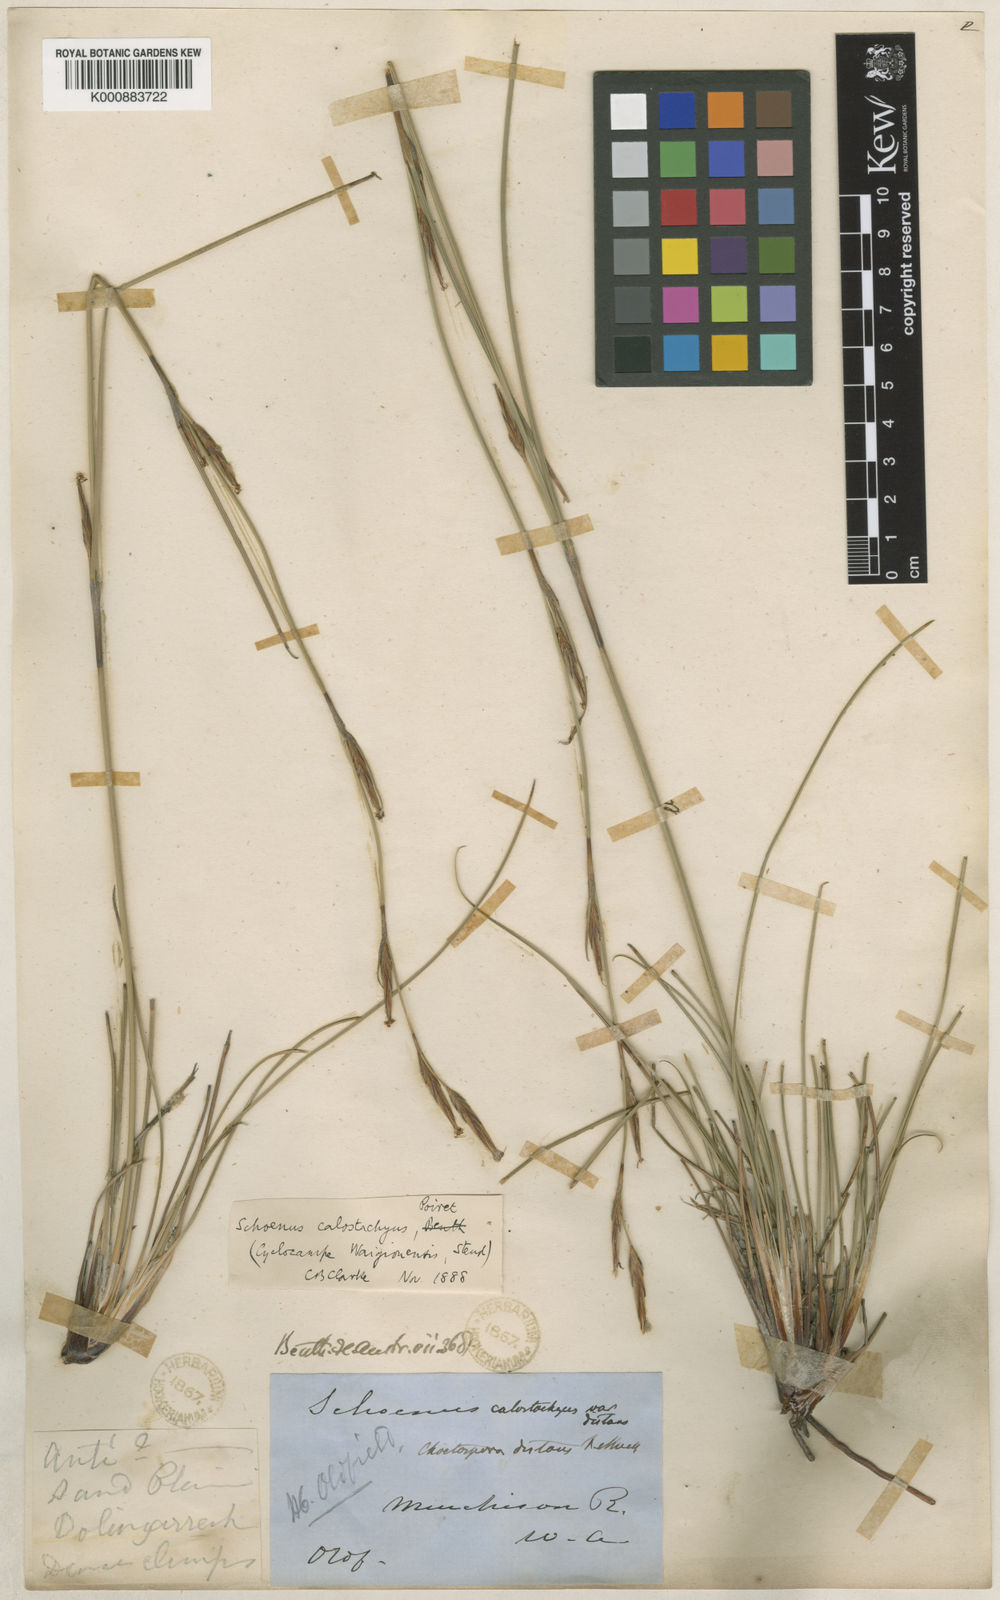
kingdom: Plantae
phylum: Tracheophyta
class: Liliopsida
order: Poales
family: Cyperaceae
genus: Schoenus
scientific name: Schoenus
